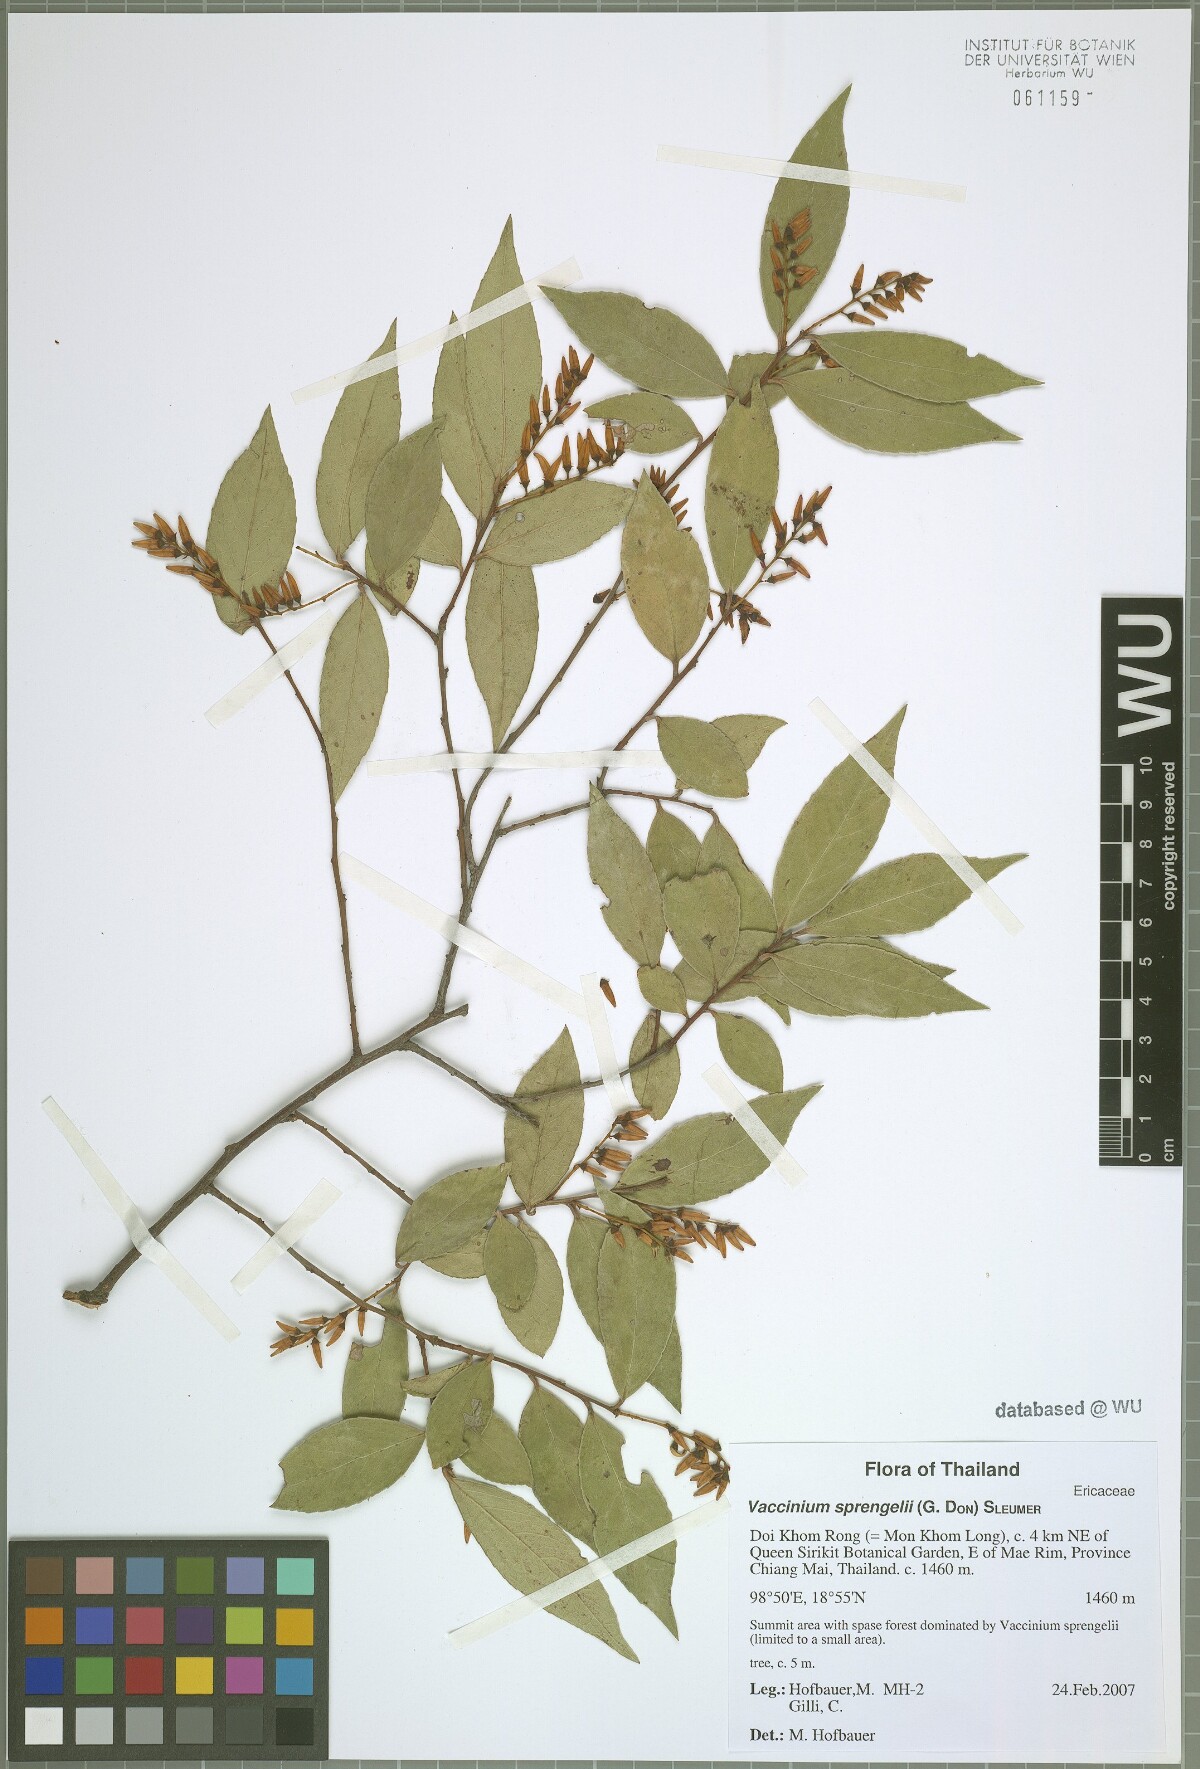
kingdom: Plantae
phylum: Tracheophyta
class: Magnoliopsida
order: Ericales
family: Ericaceae
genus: Vaccinium
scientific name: Vaccinium sprengelii
